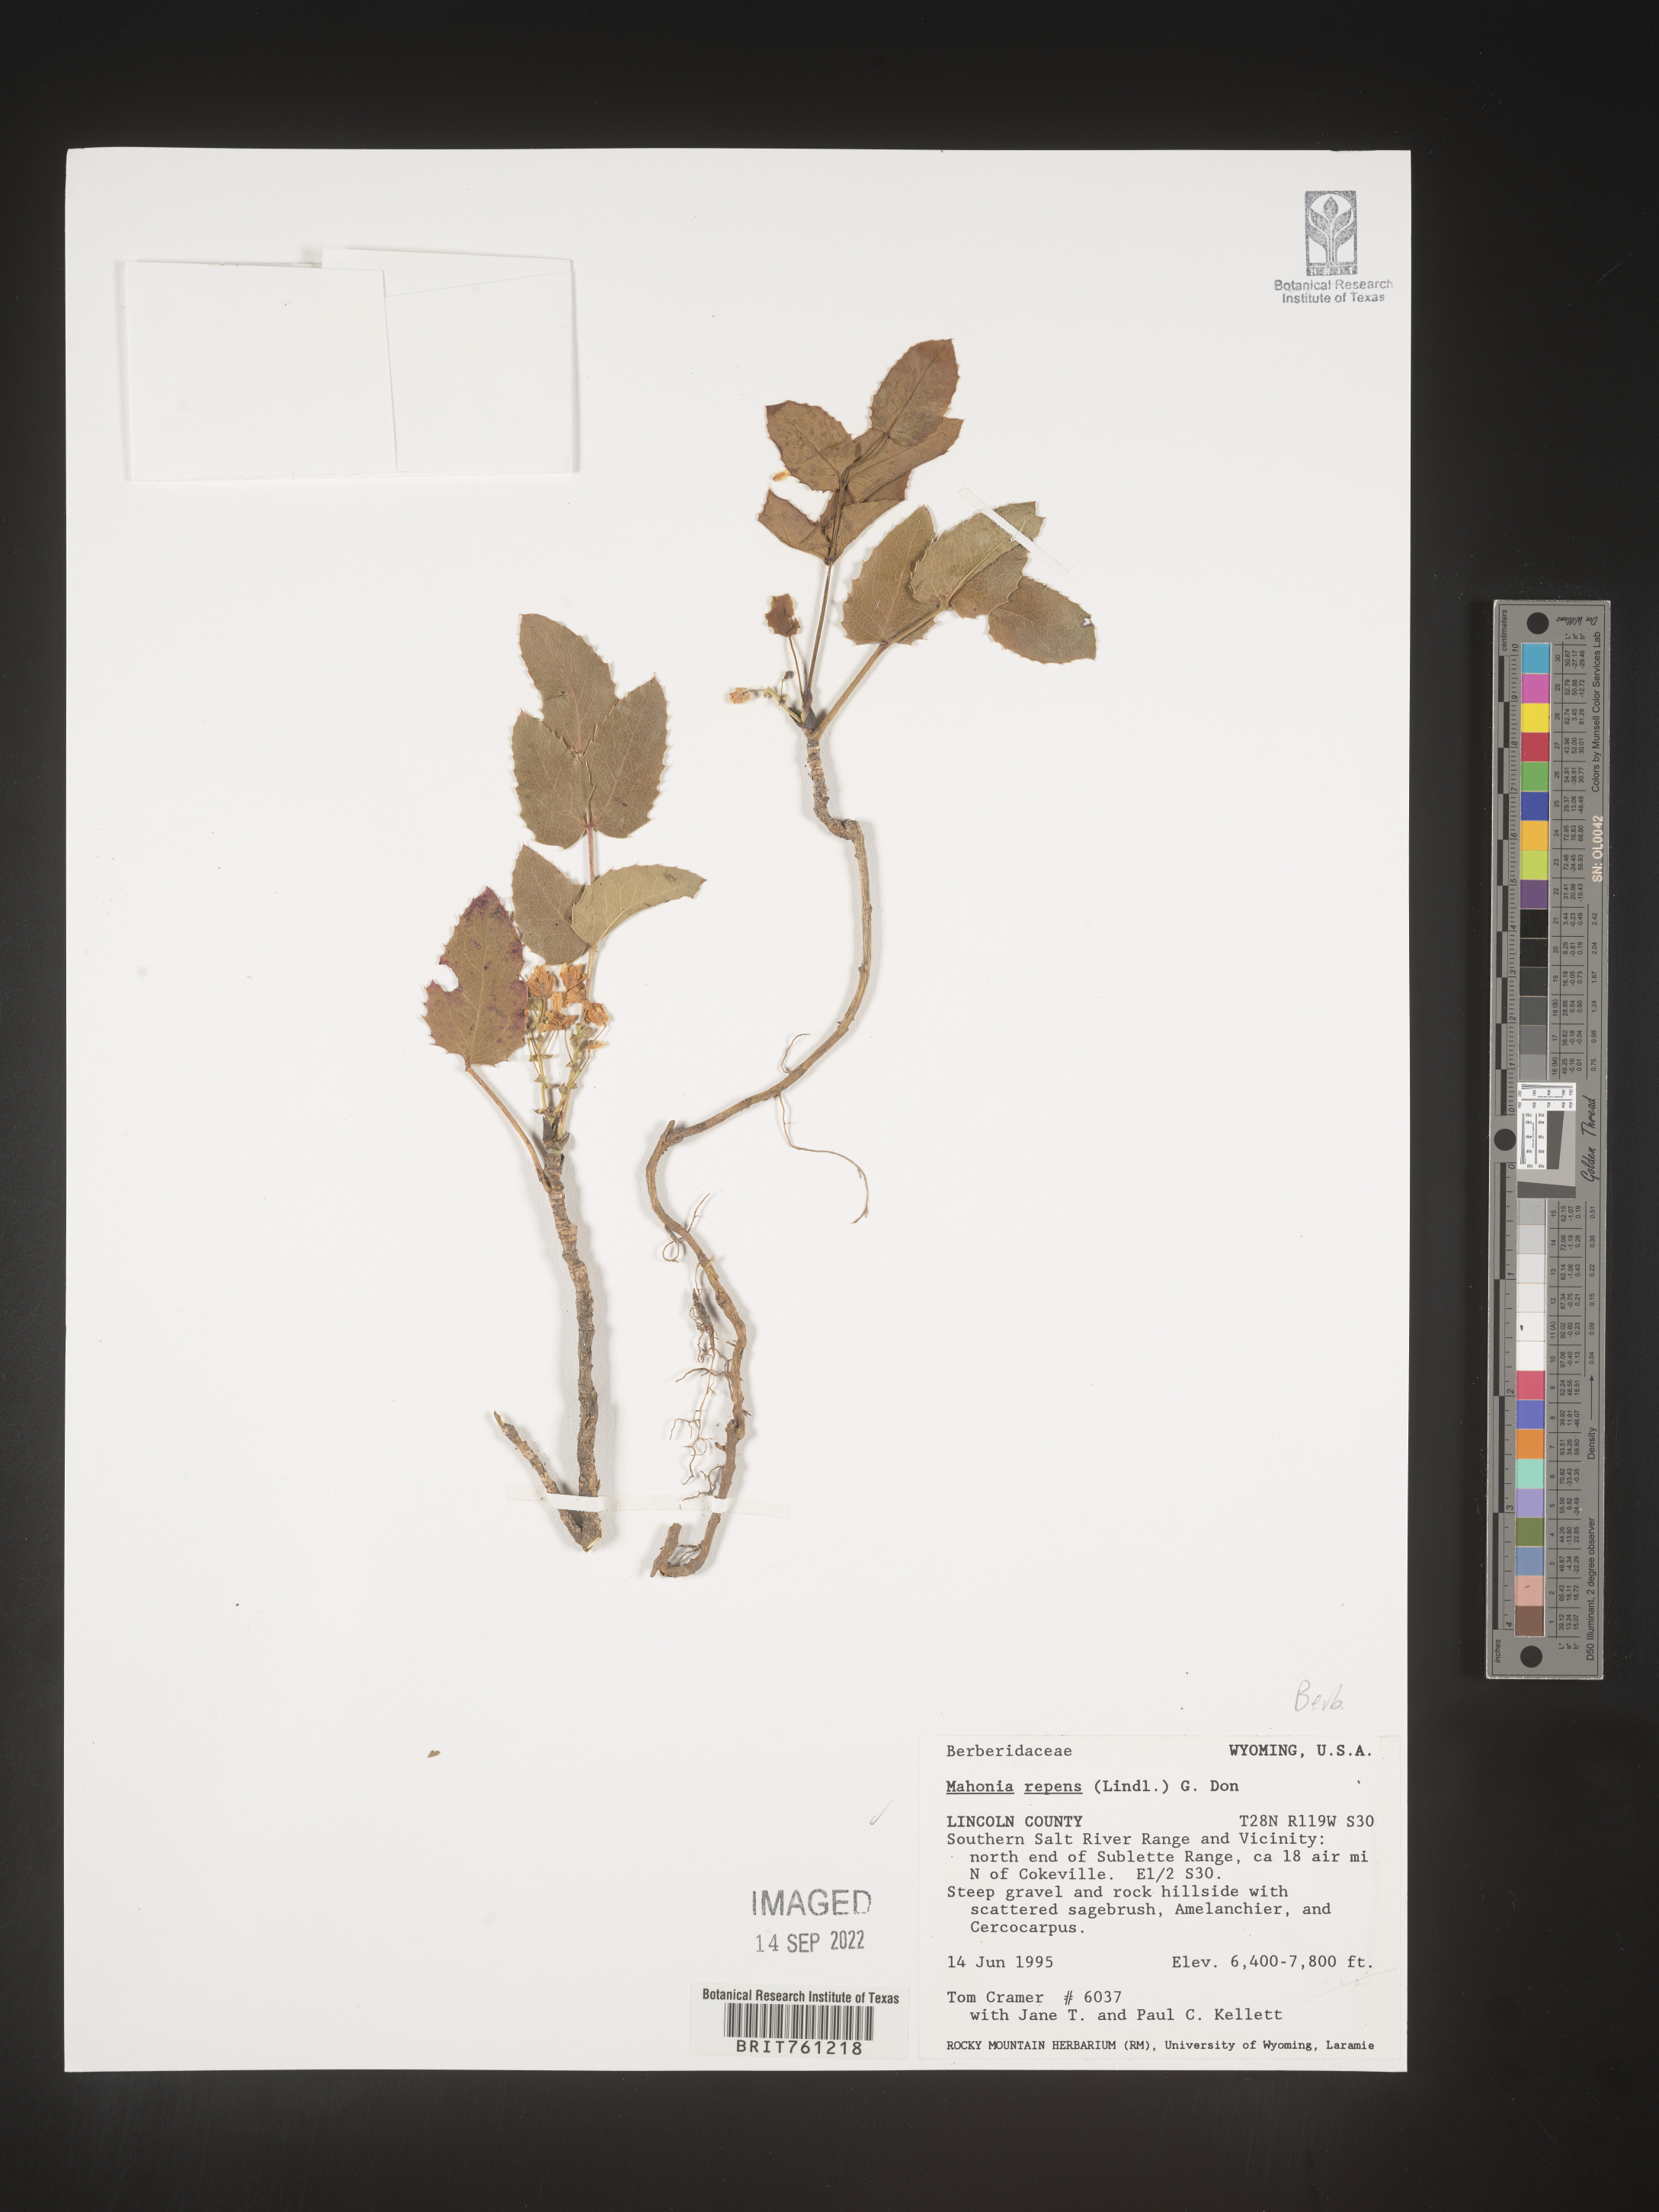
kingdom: Plantae
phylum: Tracheophyta
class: Magnoliopsida
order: Ranunculales
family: Berberidaceae
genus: Mahonia
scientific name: Mahonia repens
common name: Creeping oregon-grape
